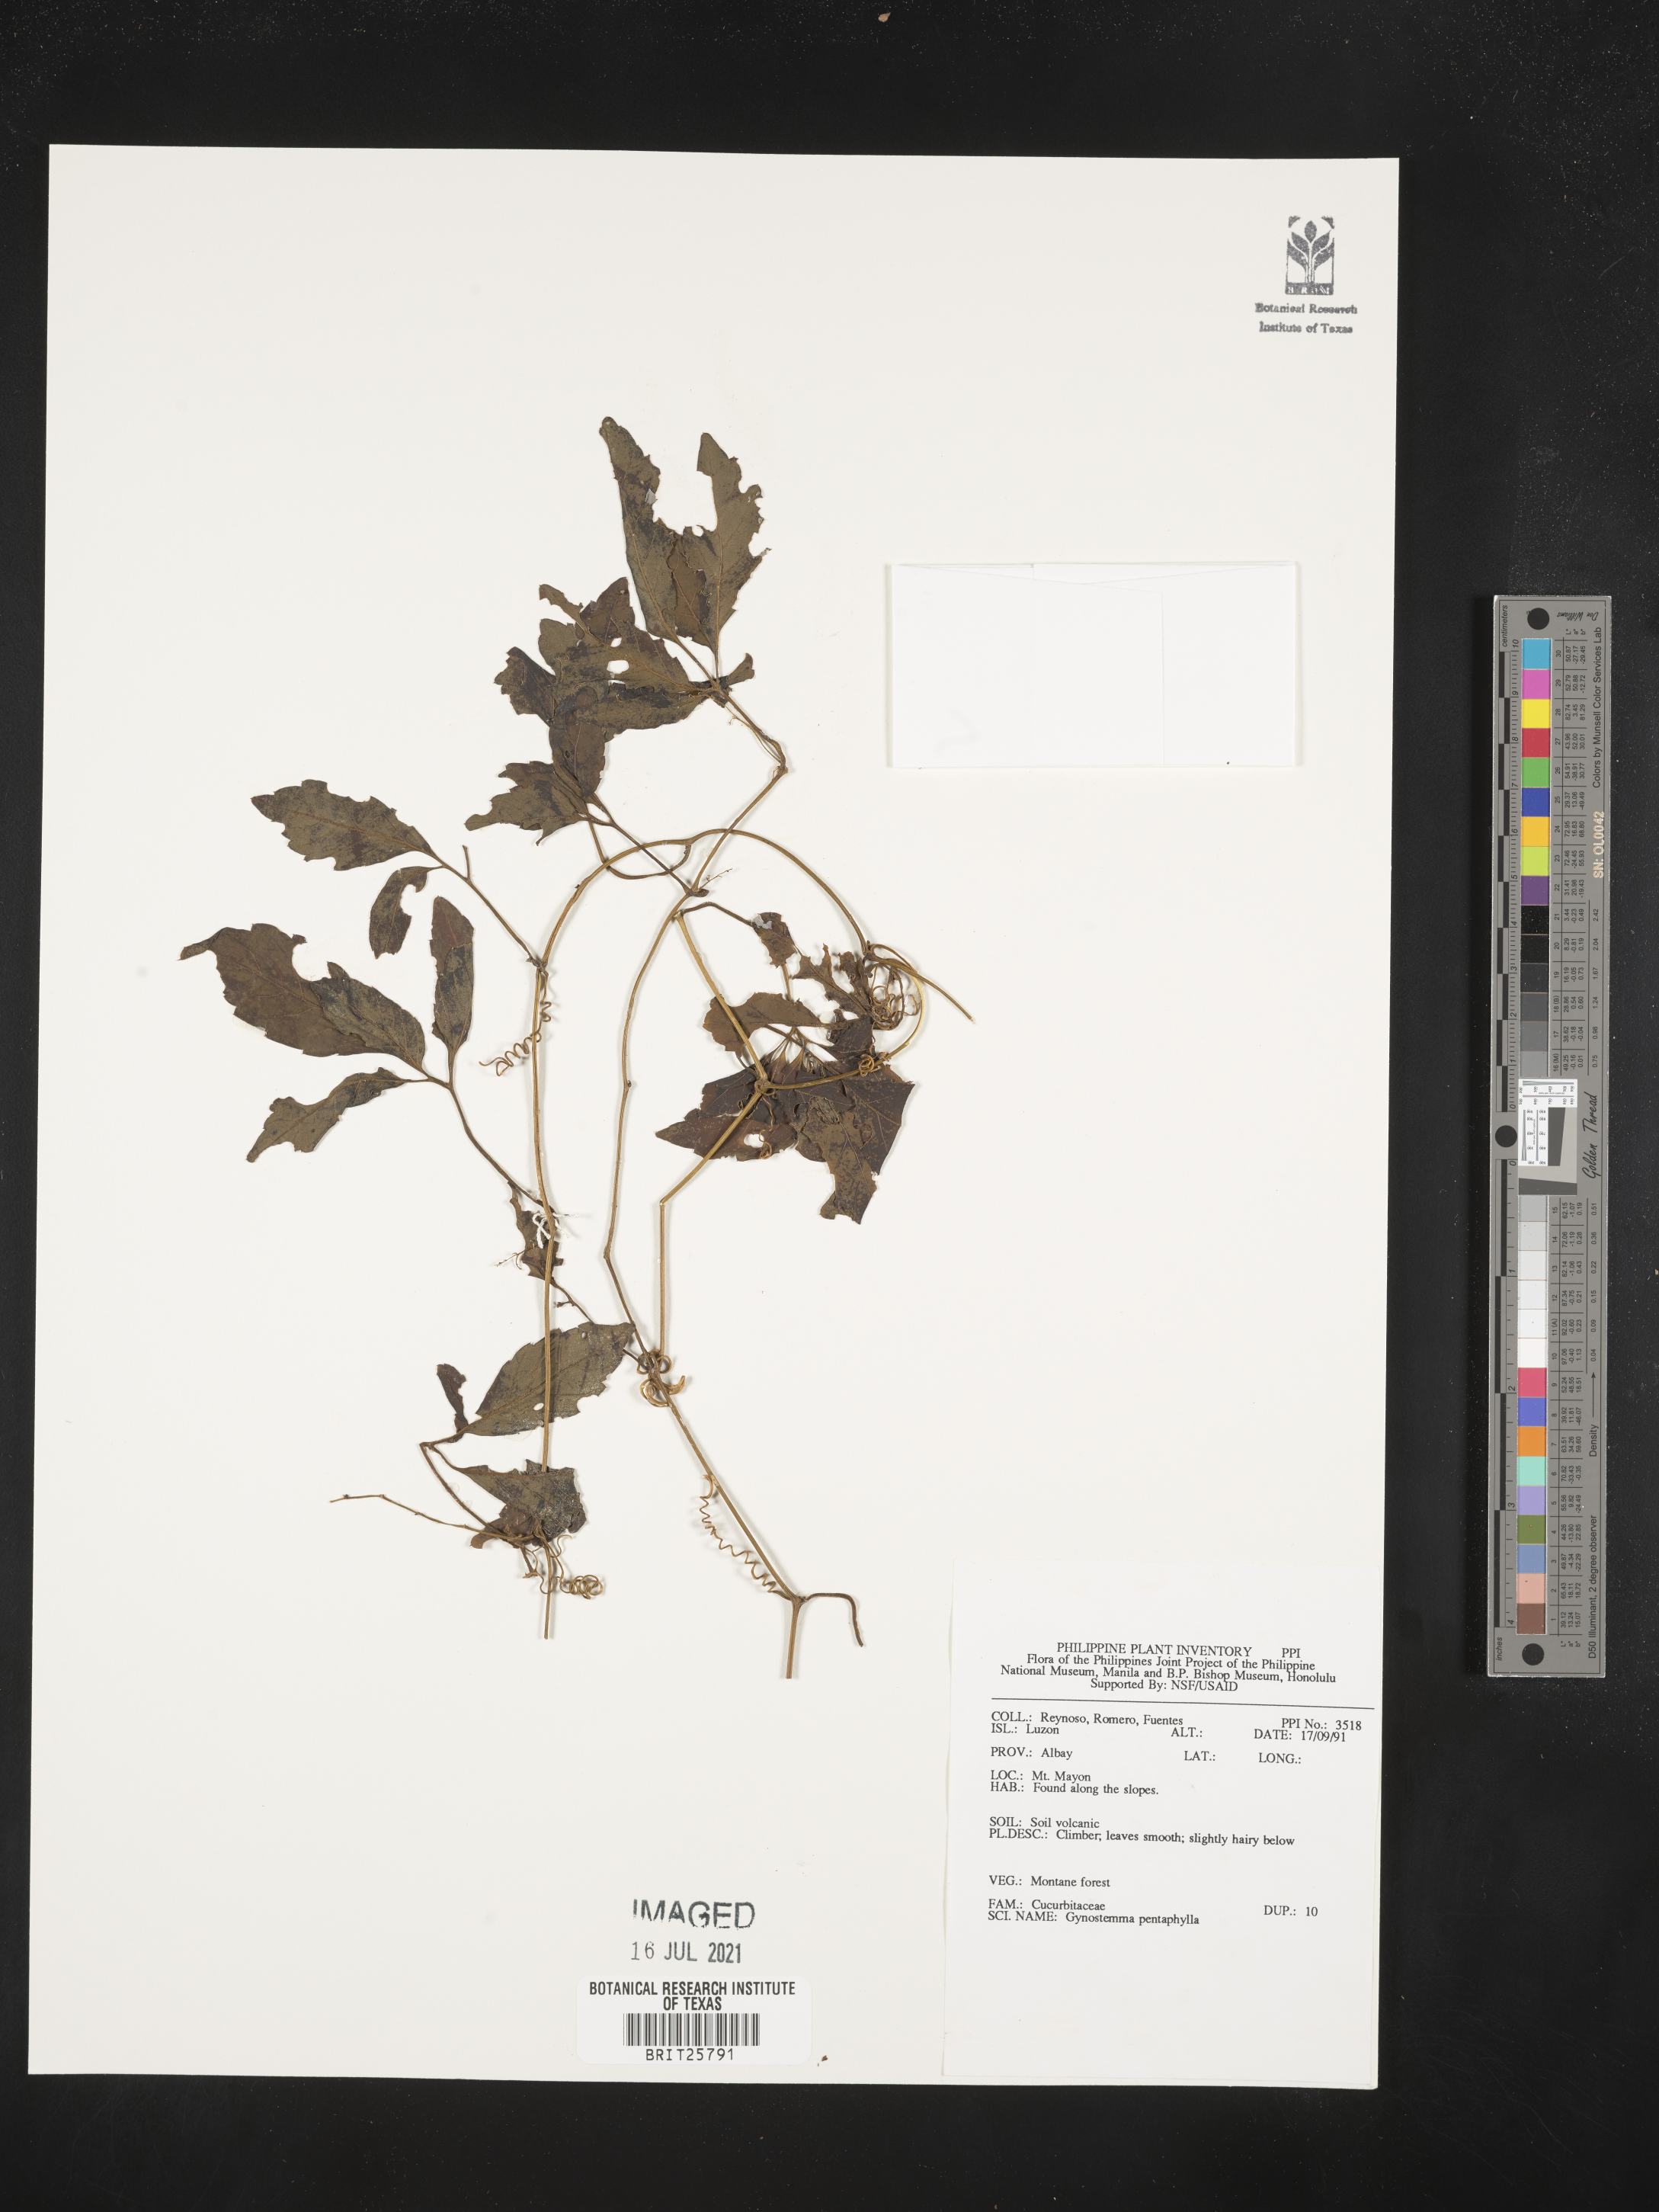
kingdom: Plantae
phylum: Tracheophyta
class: Magnoliopsida
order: Cucurbitales
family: Cucurbitaceae
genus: Gynostemma
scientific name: Gynostemma pentaphyllum
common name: Gynostemma
